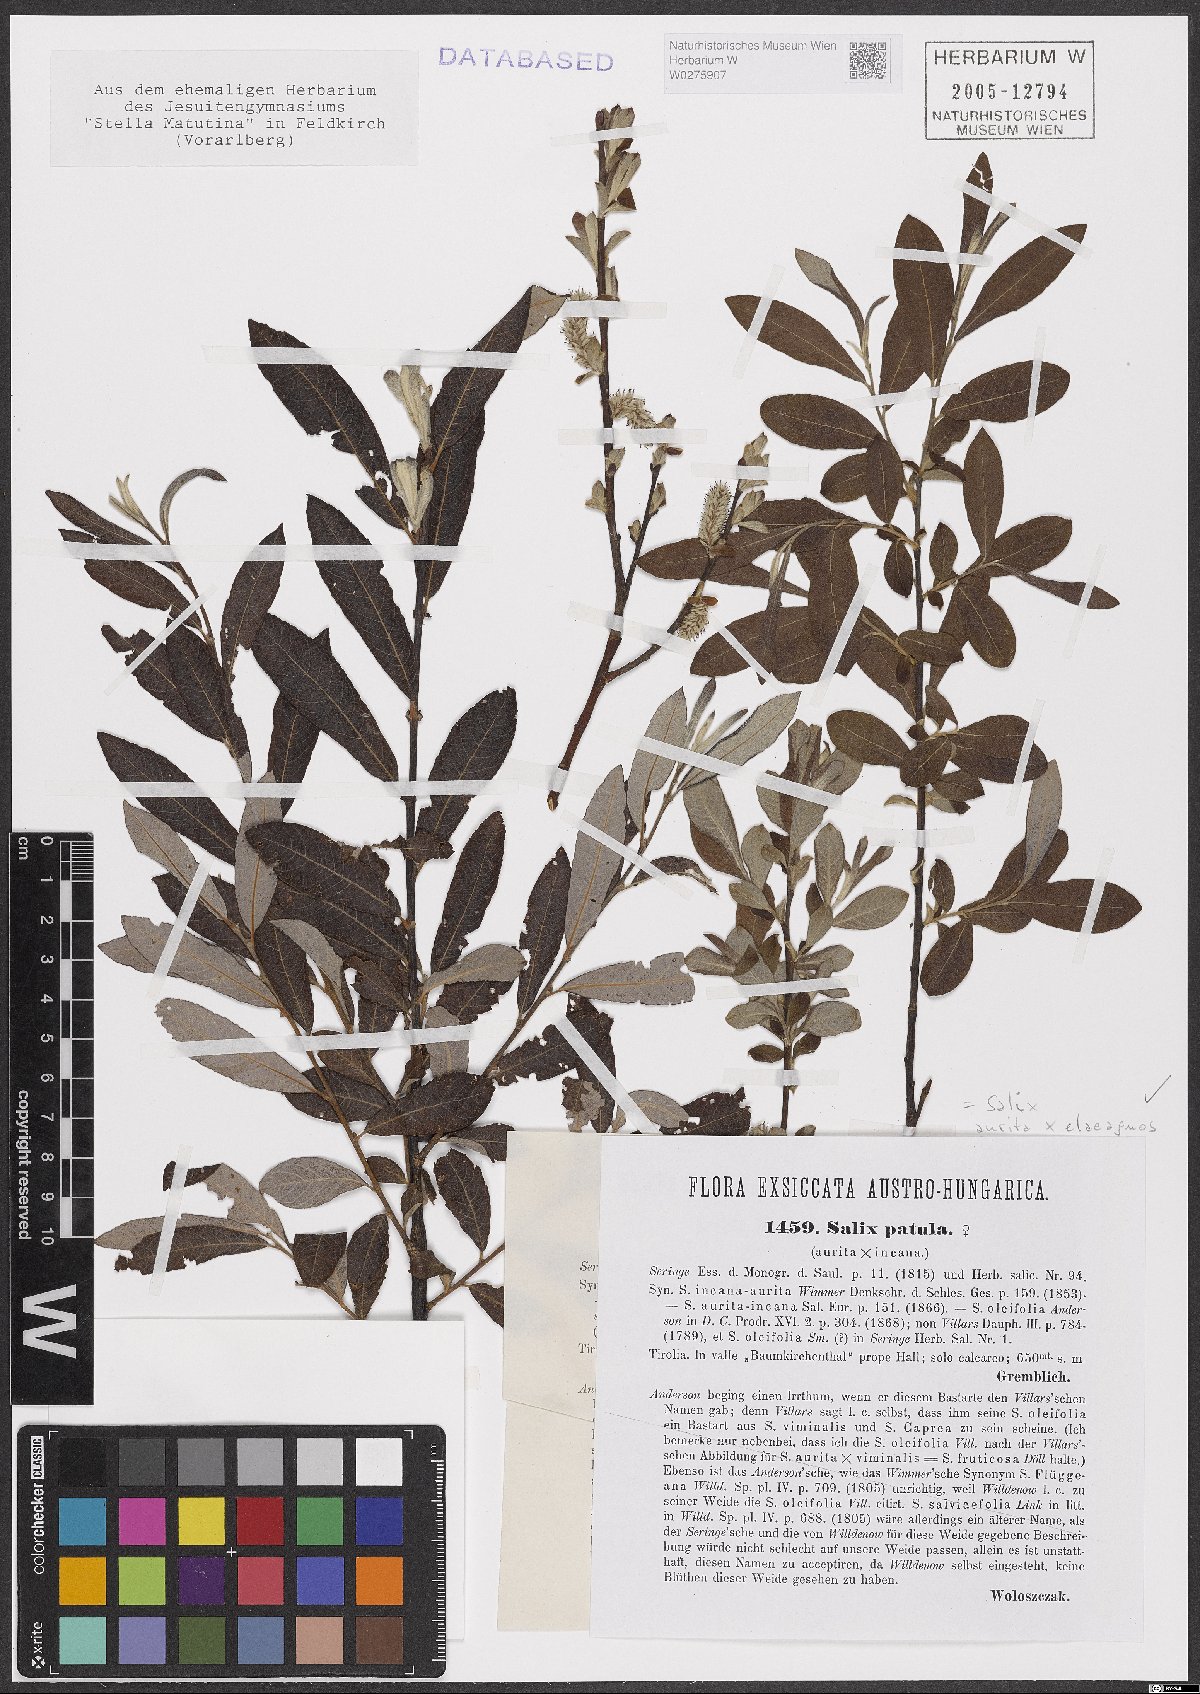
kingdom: Plantae
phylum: Tracheophyta
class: Magnoliopsida
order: Malpighiales
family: Salicaceae
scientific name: Salicaceae
